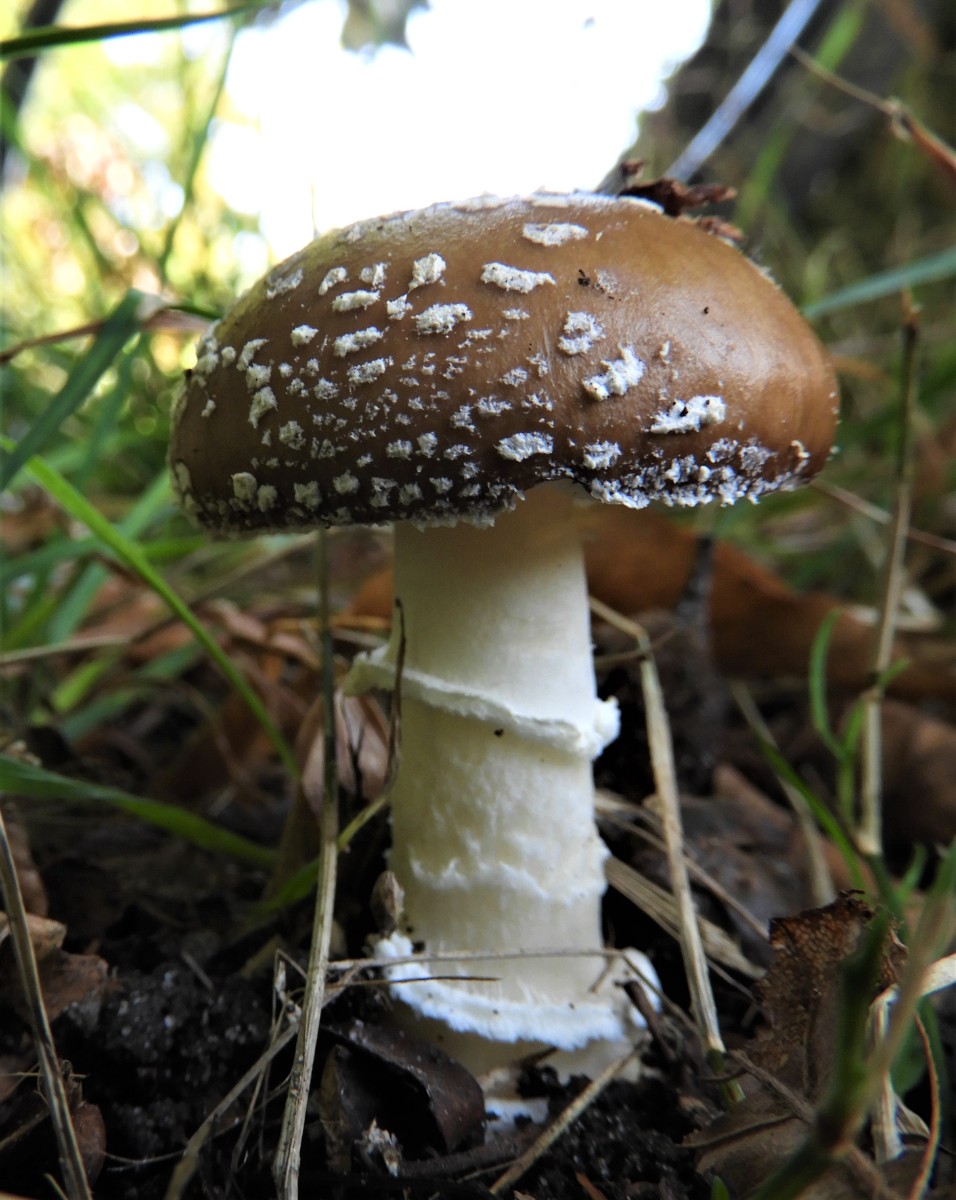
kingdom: Fungi
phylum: Basidiomycota
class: Agaricomycetes
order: Agaricales
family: Amanitaceae
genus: Amanita
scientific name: Amanita pantherina
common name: panter-fluesvamp
